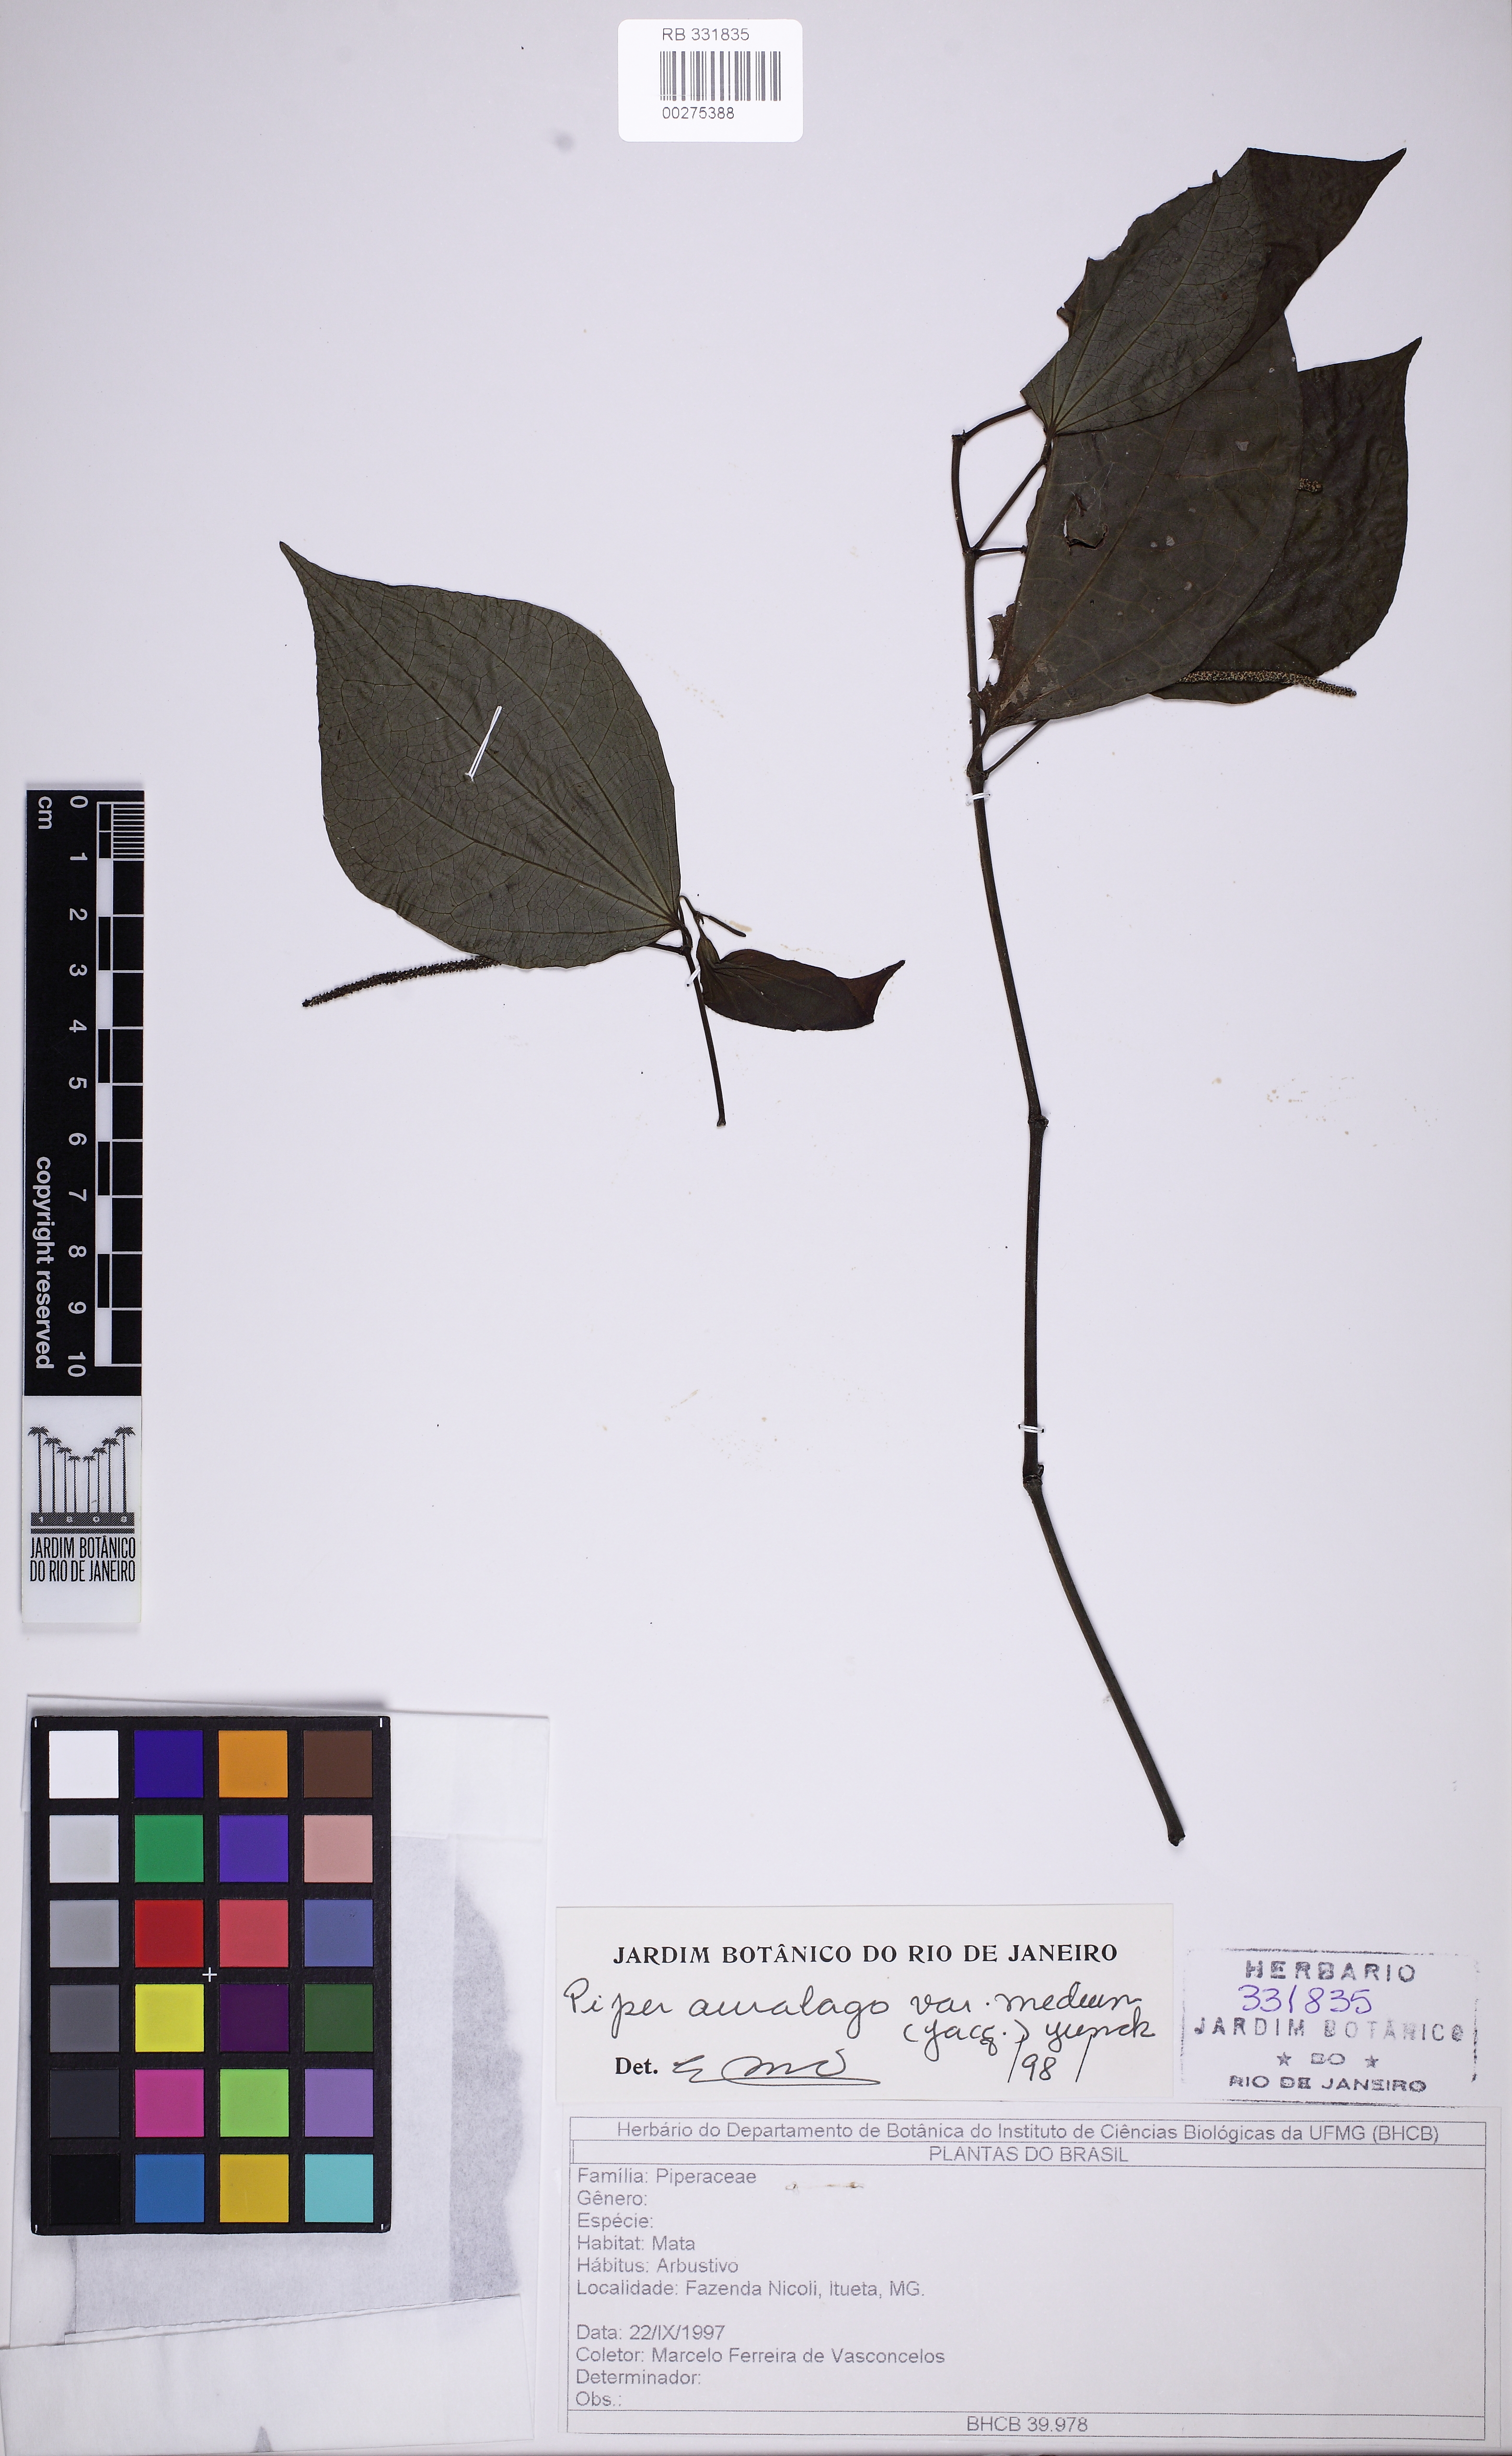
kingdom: Plantae
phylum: Tracheophyta
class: Magnoliopsida
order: Piperales
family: Piperaceae
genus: Piper
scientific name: Piper amalago
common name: Pepper-elder
